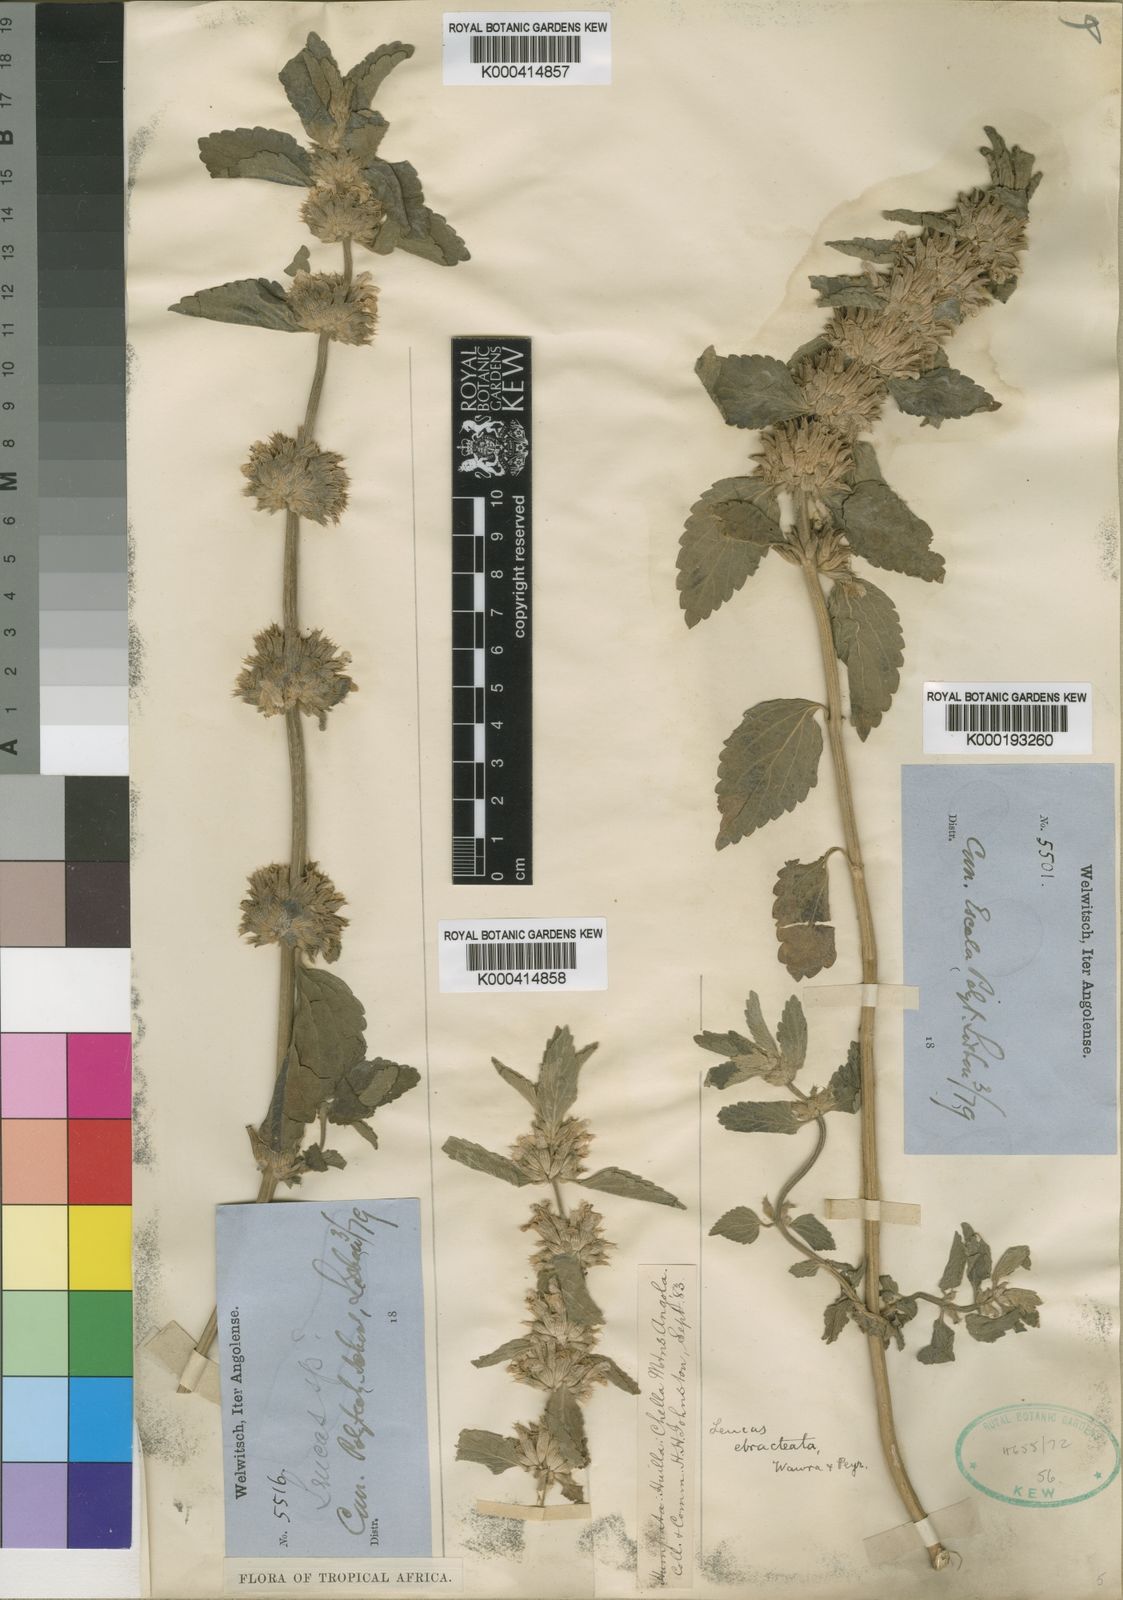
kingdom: Plantae
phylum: Tracheophyta
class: Magnoliopsida
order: Lamiales
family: Lamiaceae
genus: Leucas
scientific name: Leucas ebracteata
